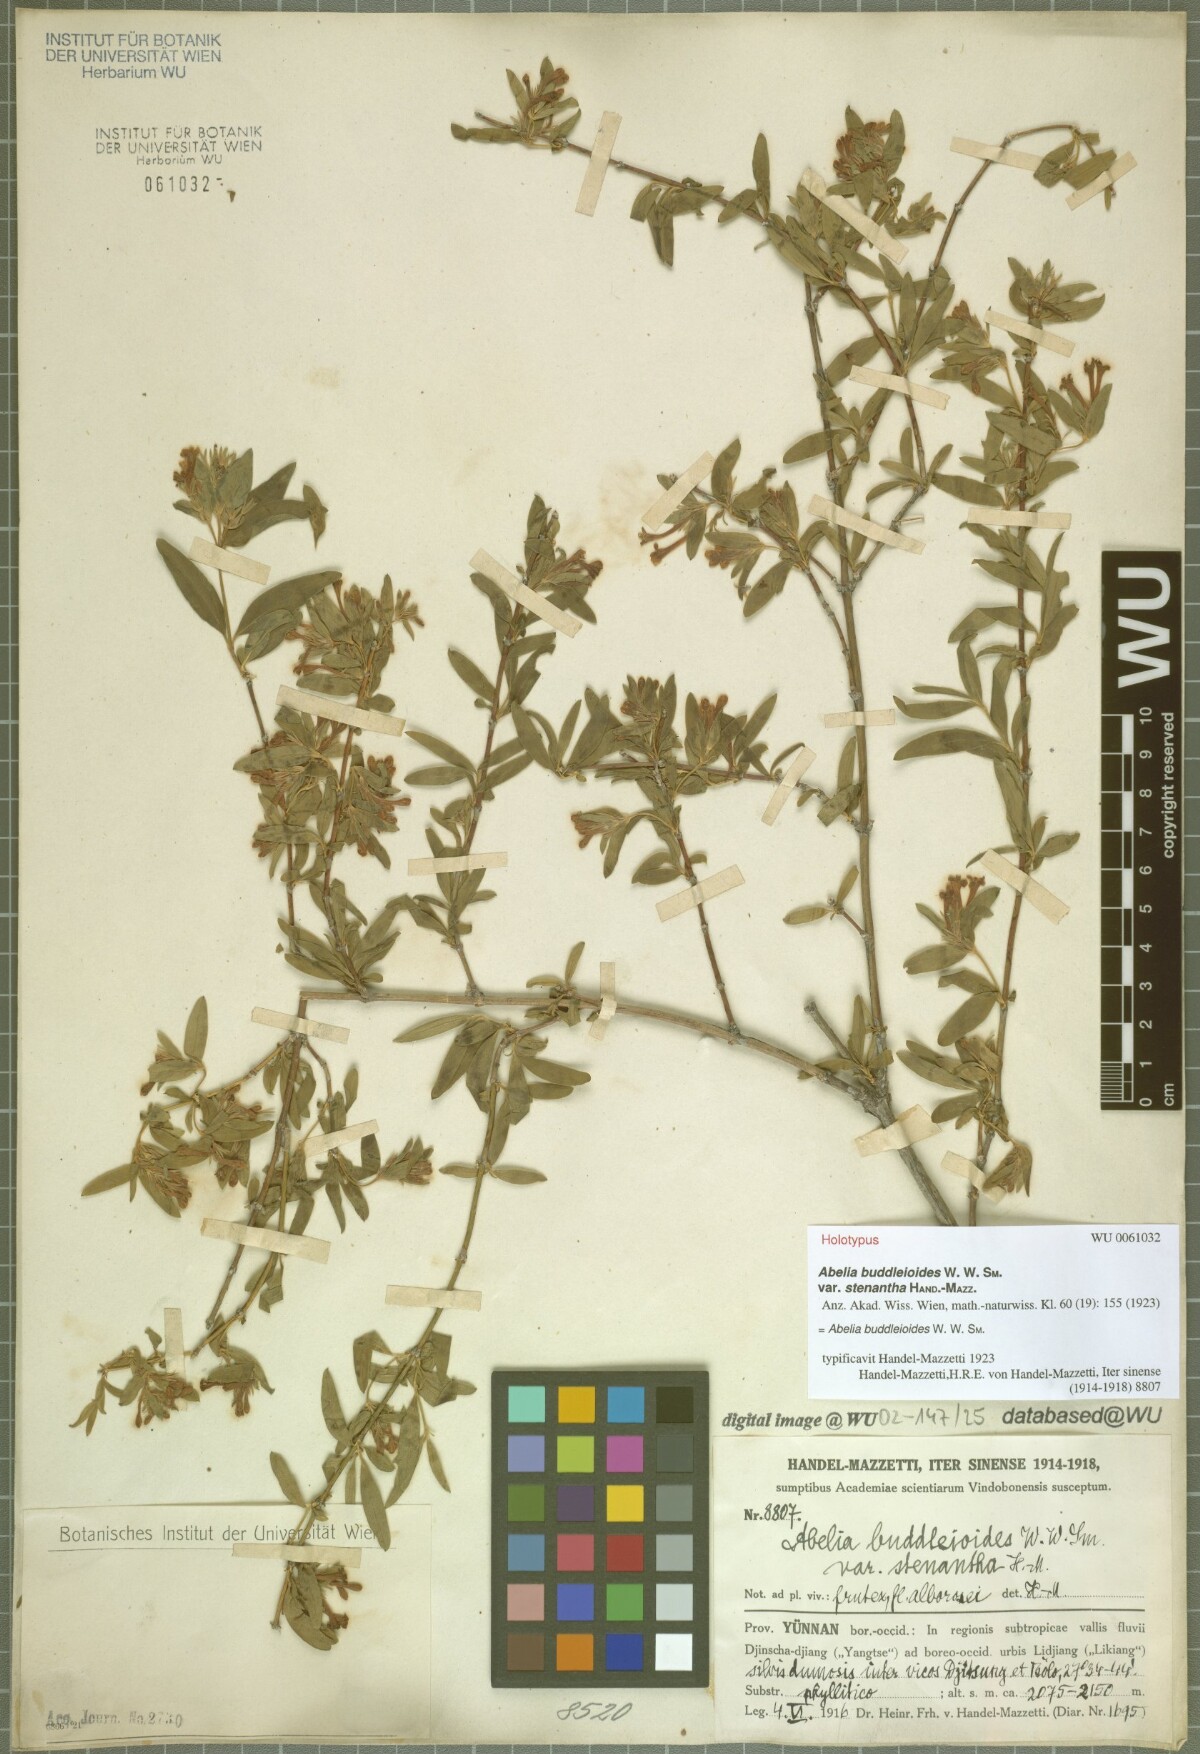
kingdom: Plantae
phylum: Tracheophyta
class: Magnoliopsida
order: Dipsacales
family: Caprifoliaceae
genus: Zabelia
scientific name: Zabelia triflora
